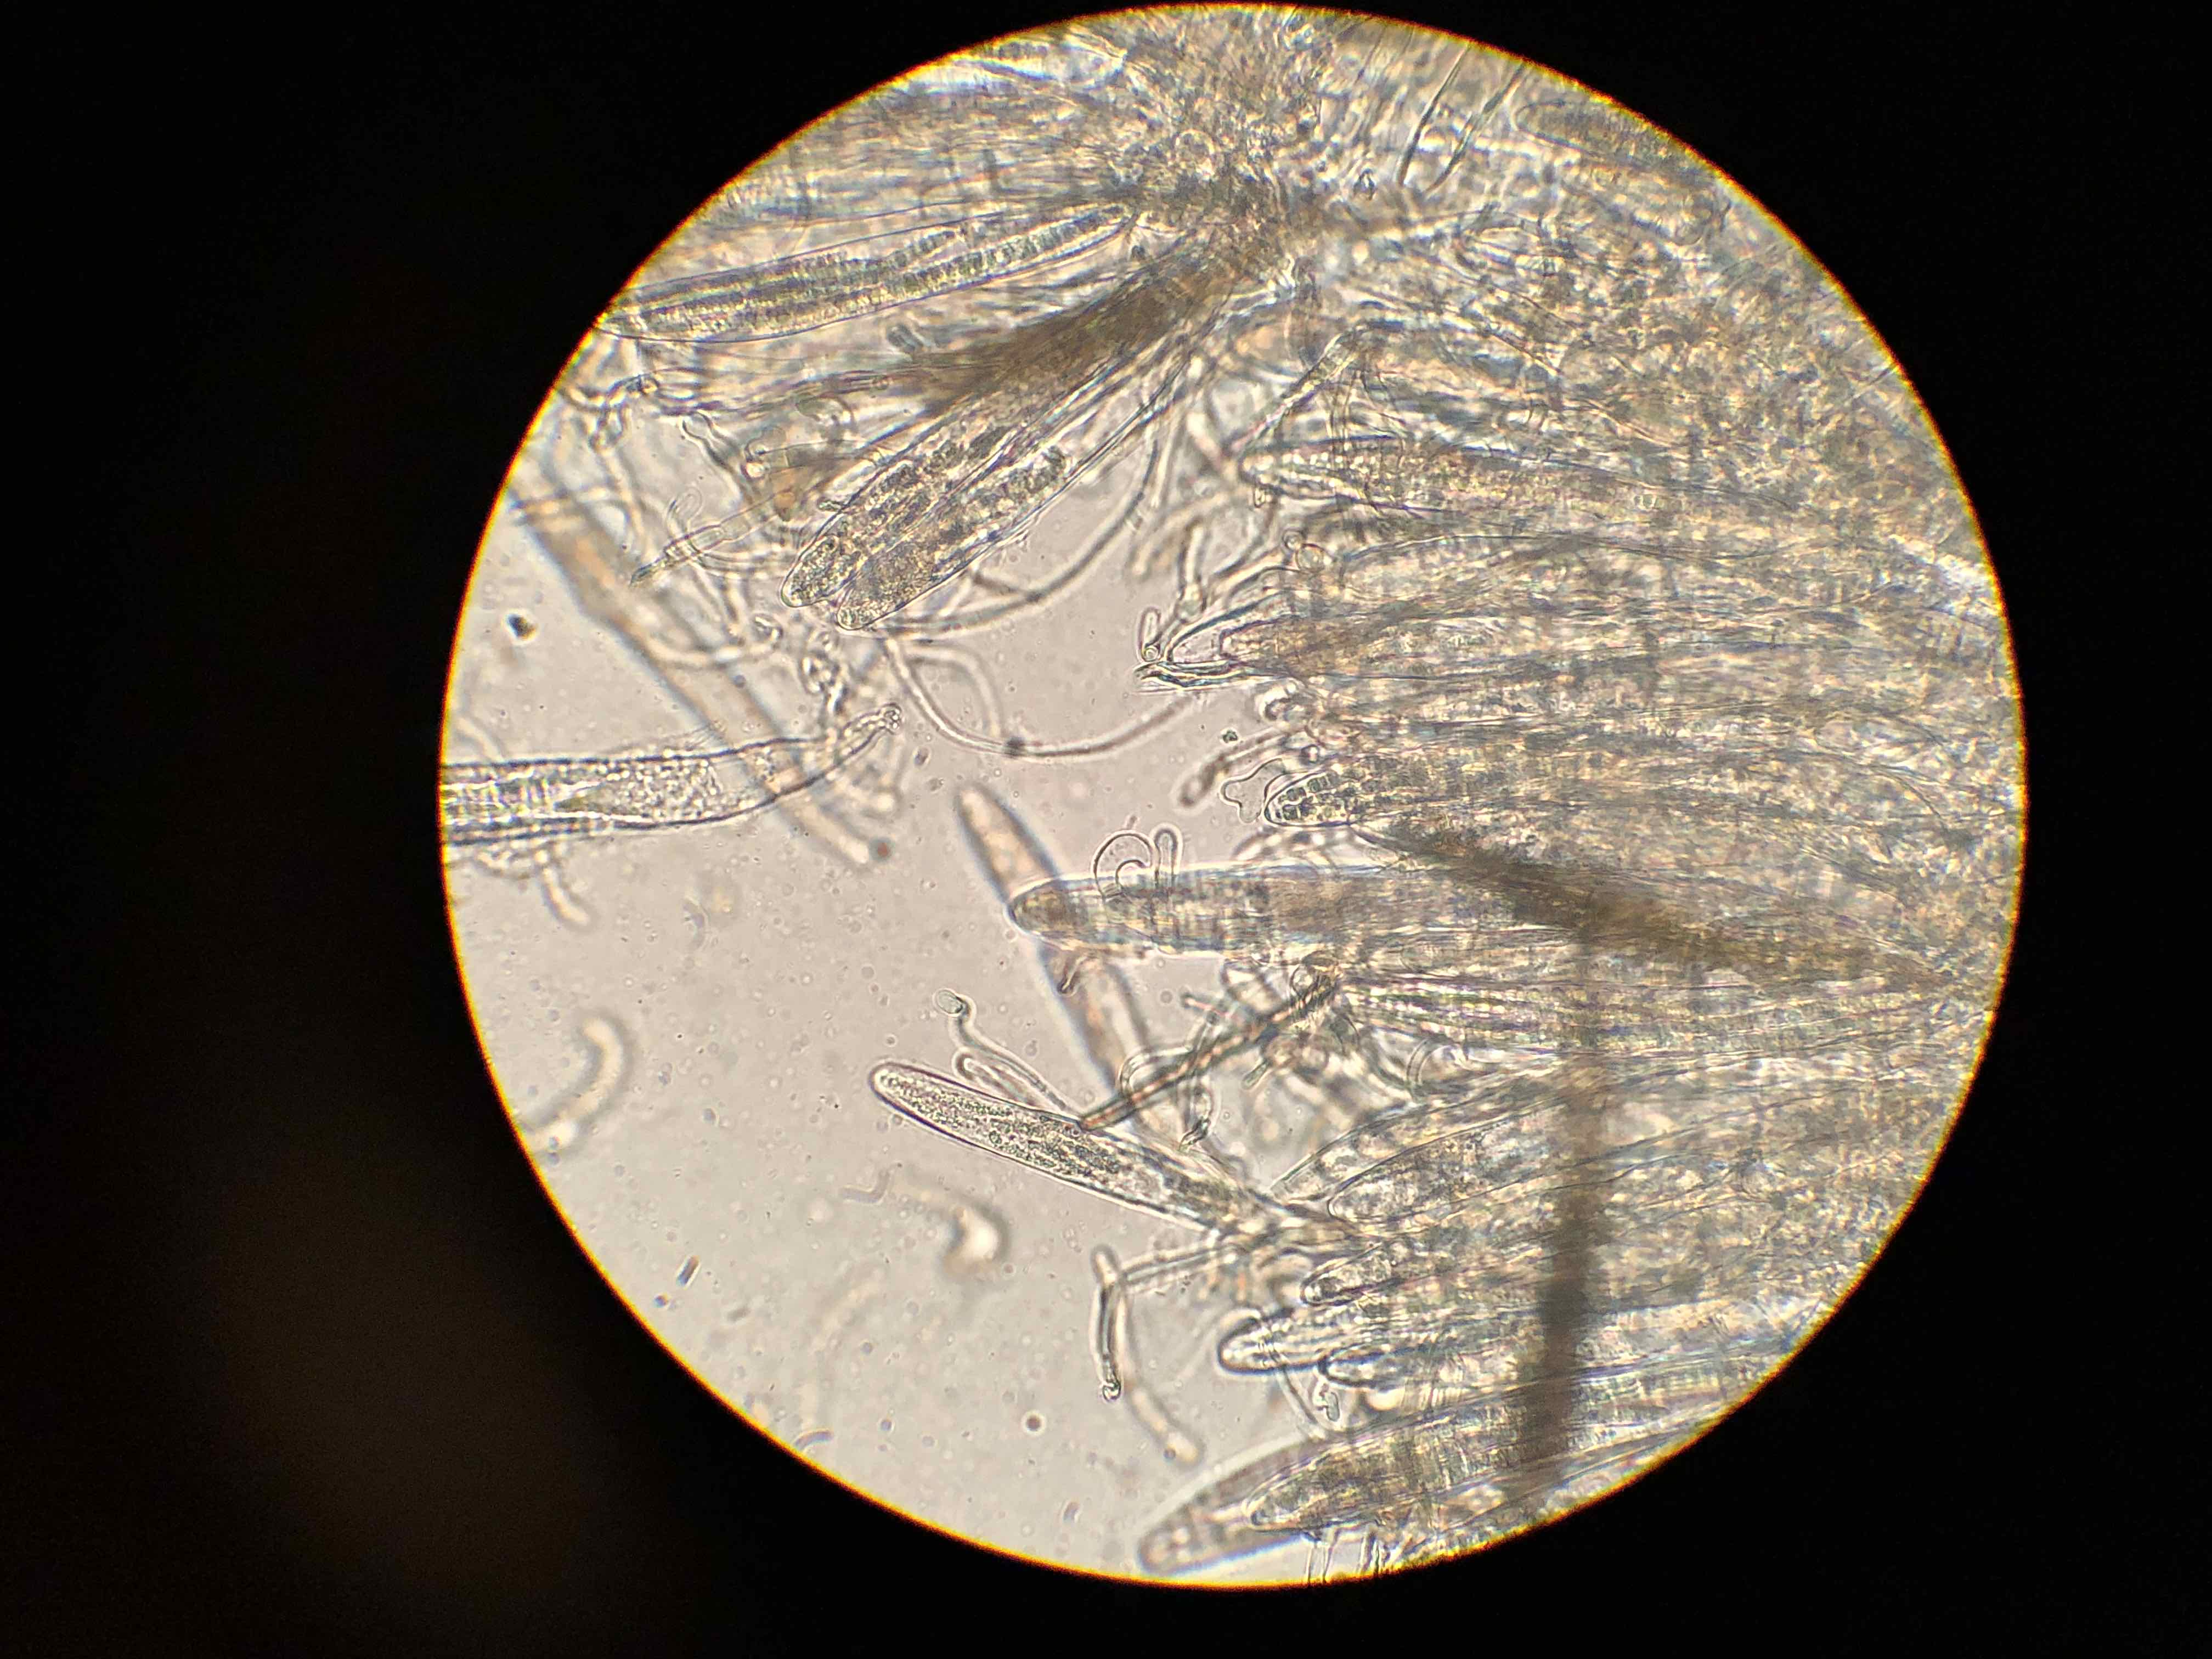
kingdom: Fungi
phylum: Ascomycota
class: Geoglossomycetes
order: Geoglossales
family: Geoglossaceae
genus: Geoglossum
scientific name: Geoglossum fallax
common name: småskællet jordtunge
